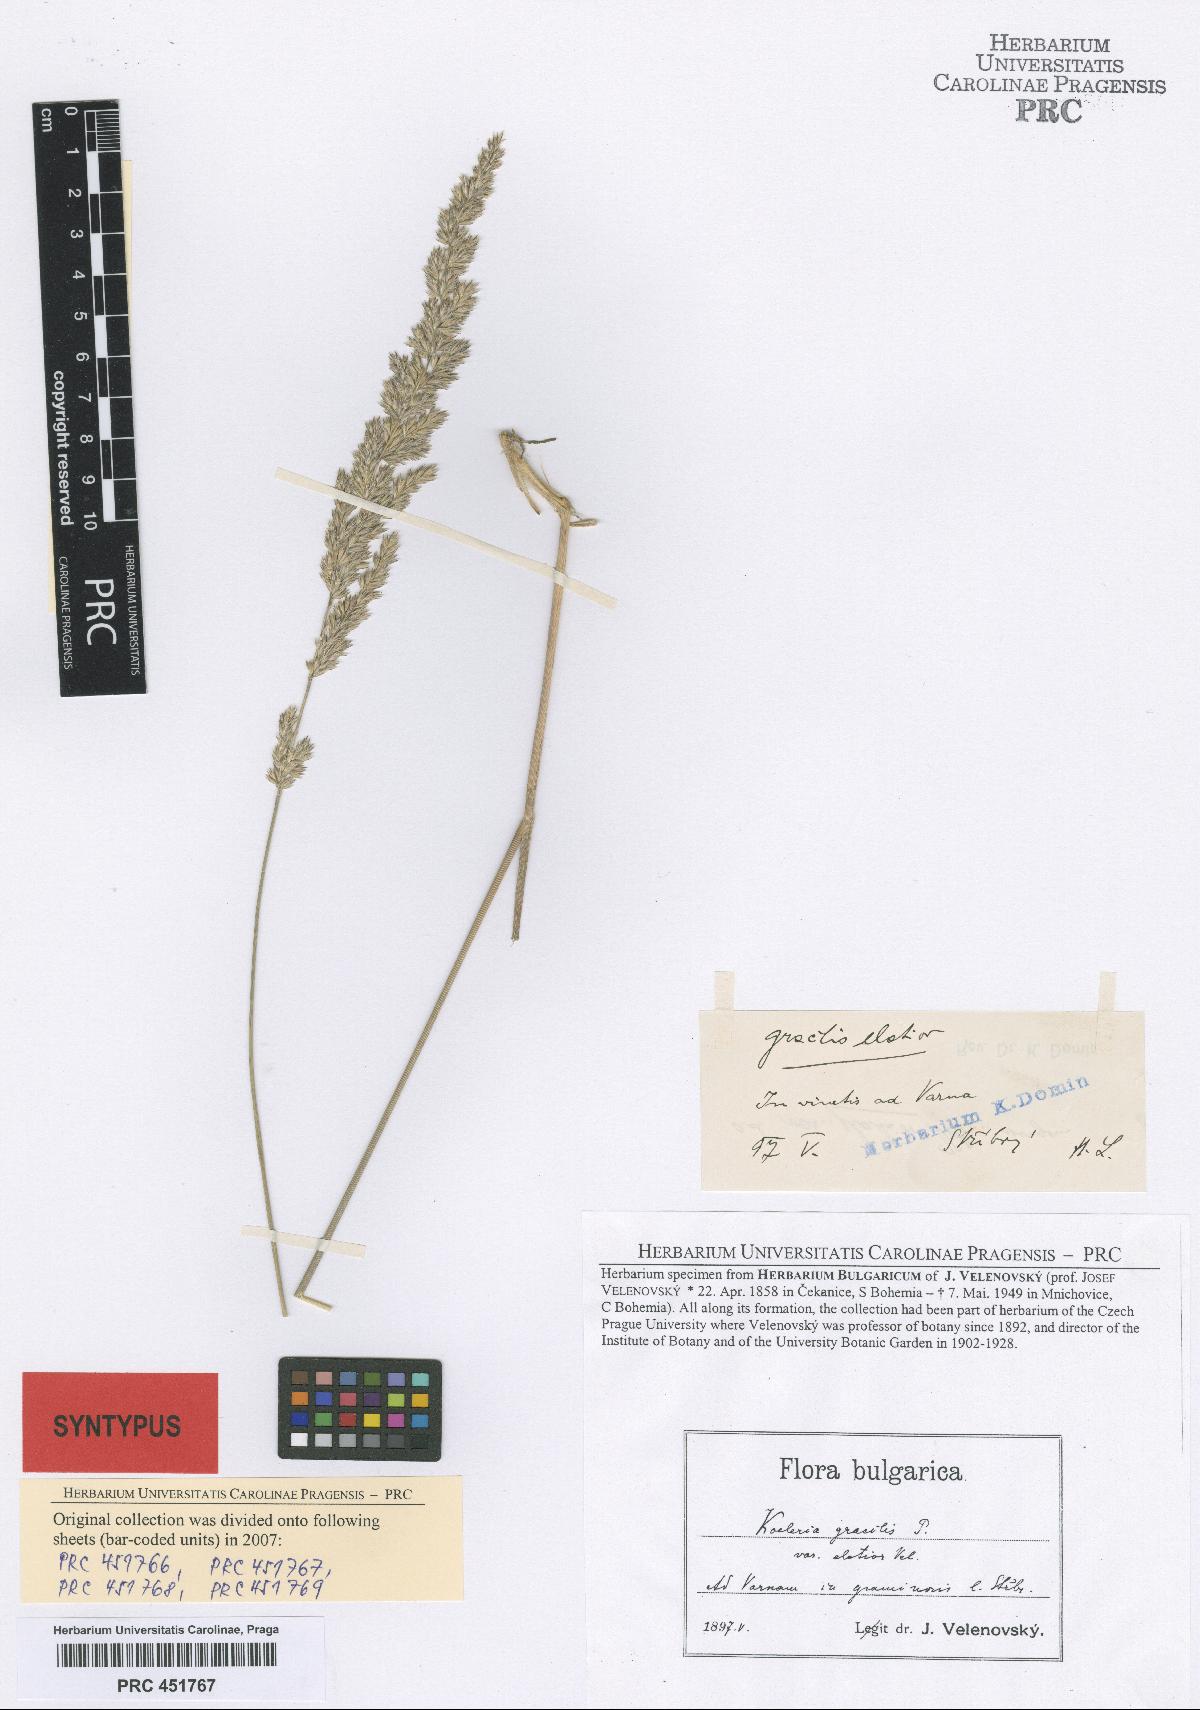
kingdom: Plantae
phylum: Tracheophyta
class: Liliopsida
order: Poales
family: Poaceae
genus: Koeleria
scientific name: Koeleria macrantha
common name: Crested hair-grass
